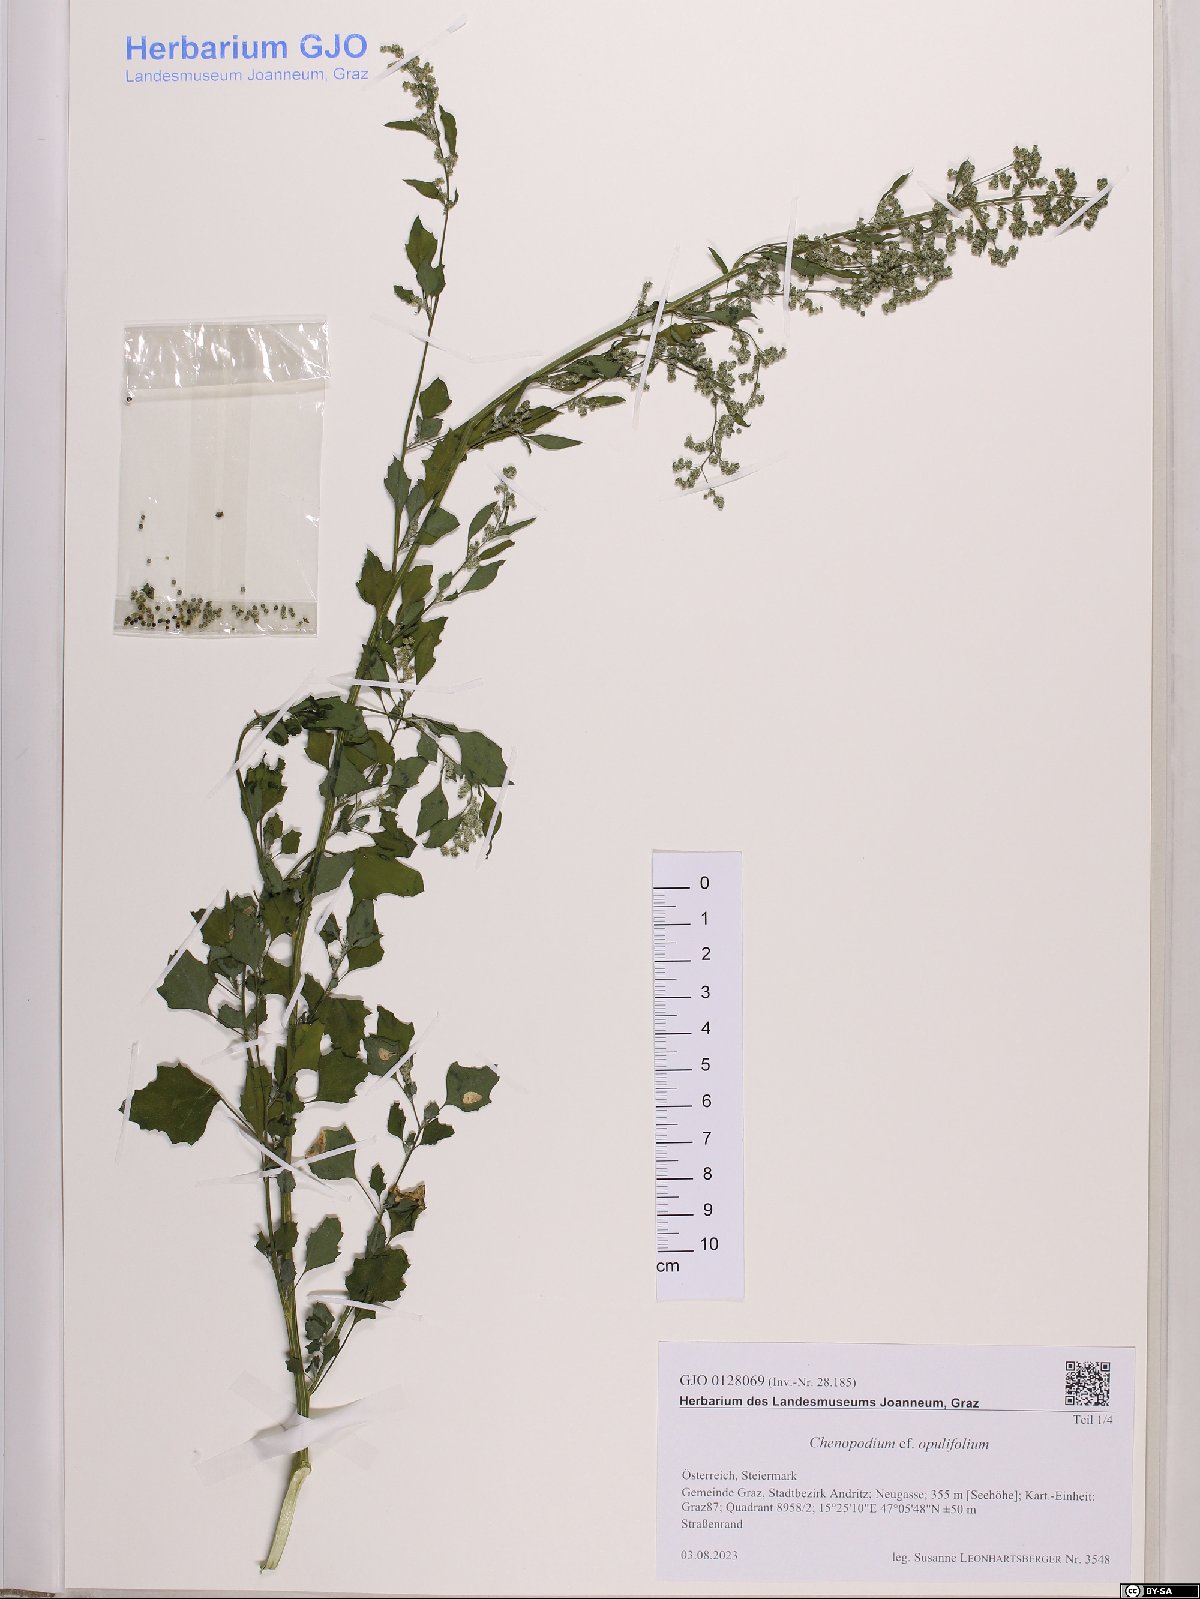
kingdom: Plantae
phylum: Tracheophyta
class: Magnoliopsida
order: Caryophyllales
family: Amaranthaceae
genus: Chenopodium
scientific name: Chenopodium opulifolium
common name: Grey goosefoot
